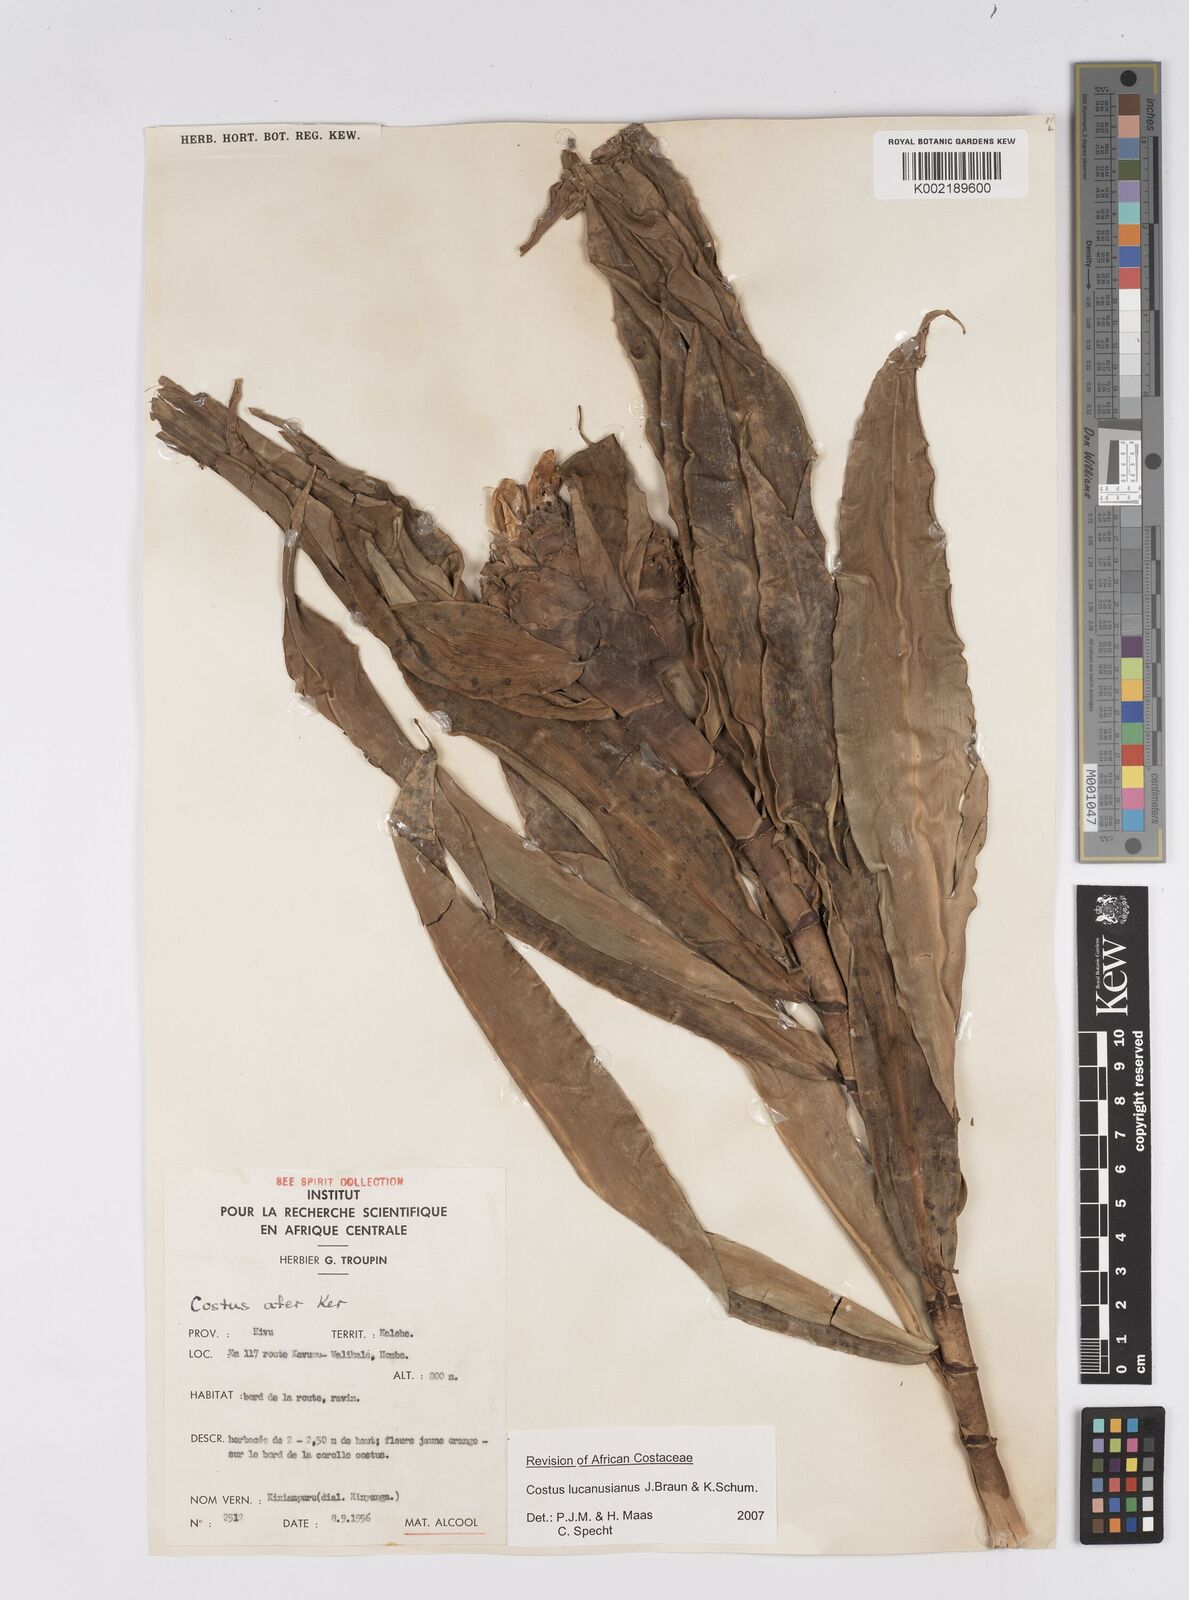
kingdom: Plantae
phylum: Tracheophyta
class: Liliopsida
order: Zingiberales
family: Costaceae
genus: Costus
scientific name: Costus lucanusianus
